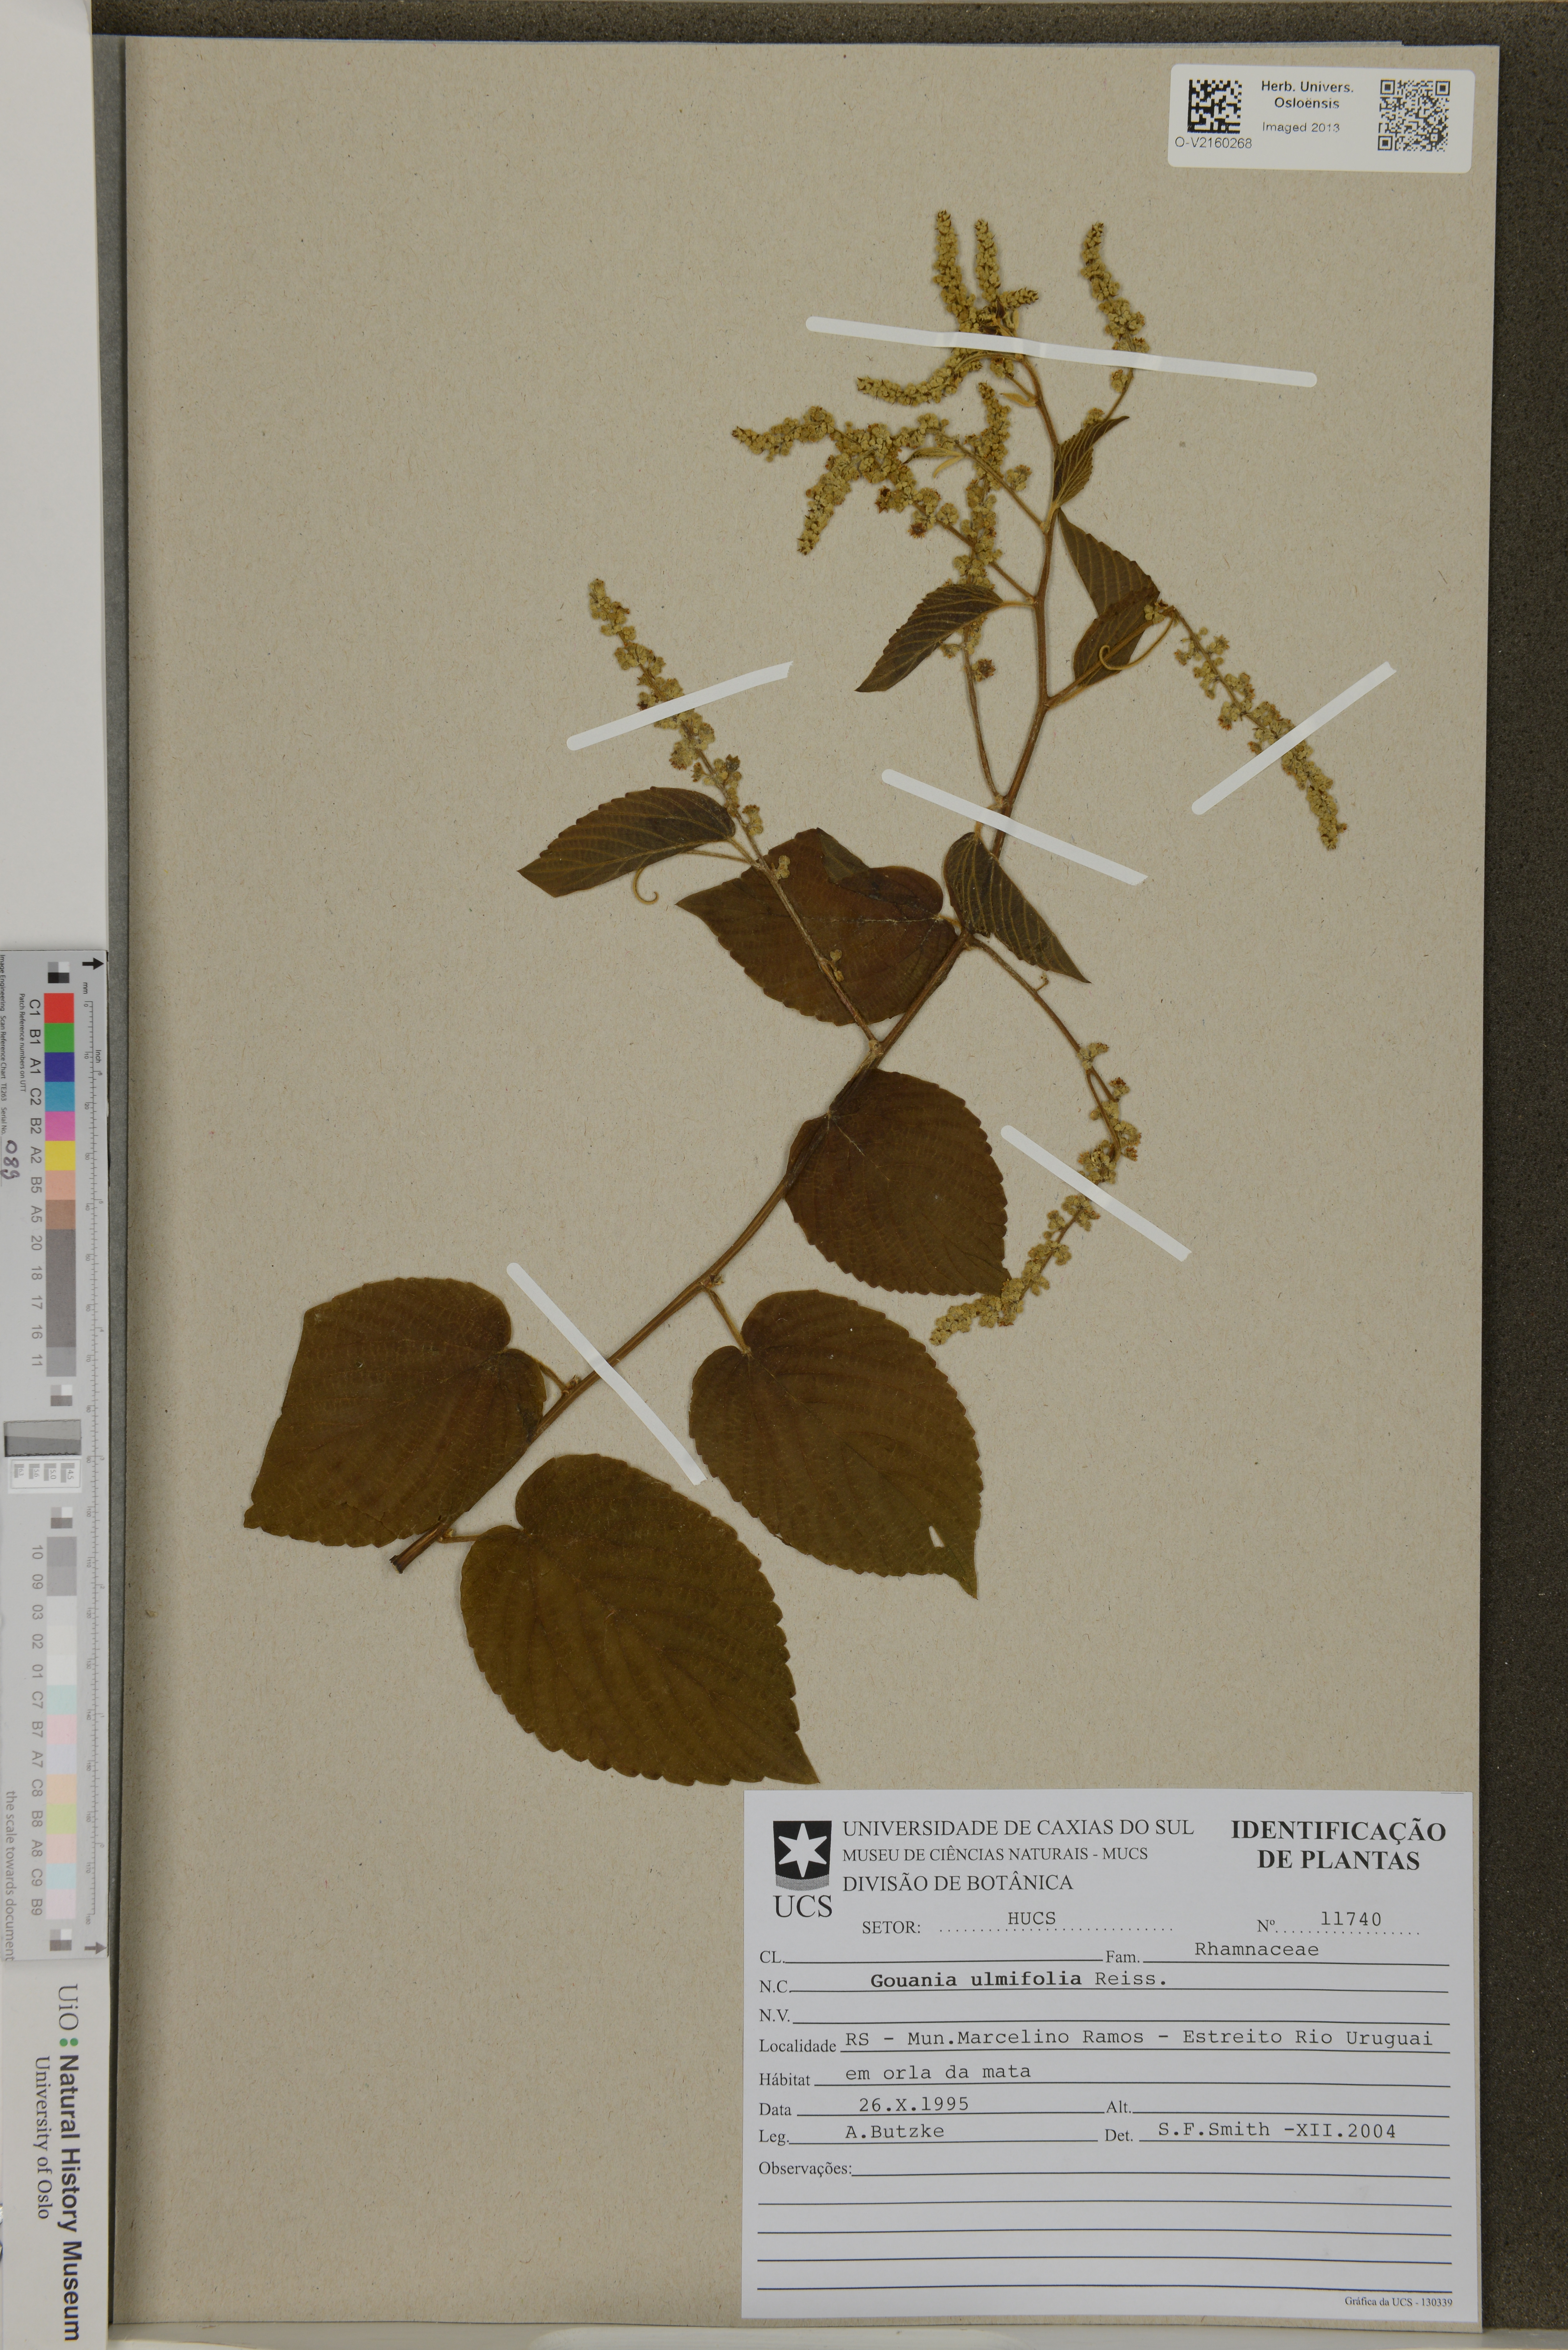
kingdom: Plantae
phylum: Tracheophyta
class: Magnoliopsida
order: Rosales
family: Rhamnaceae
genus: Gouania
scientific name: Gouania ulmifolia
